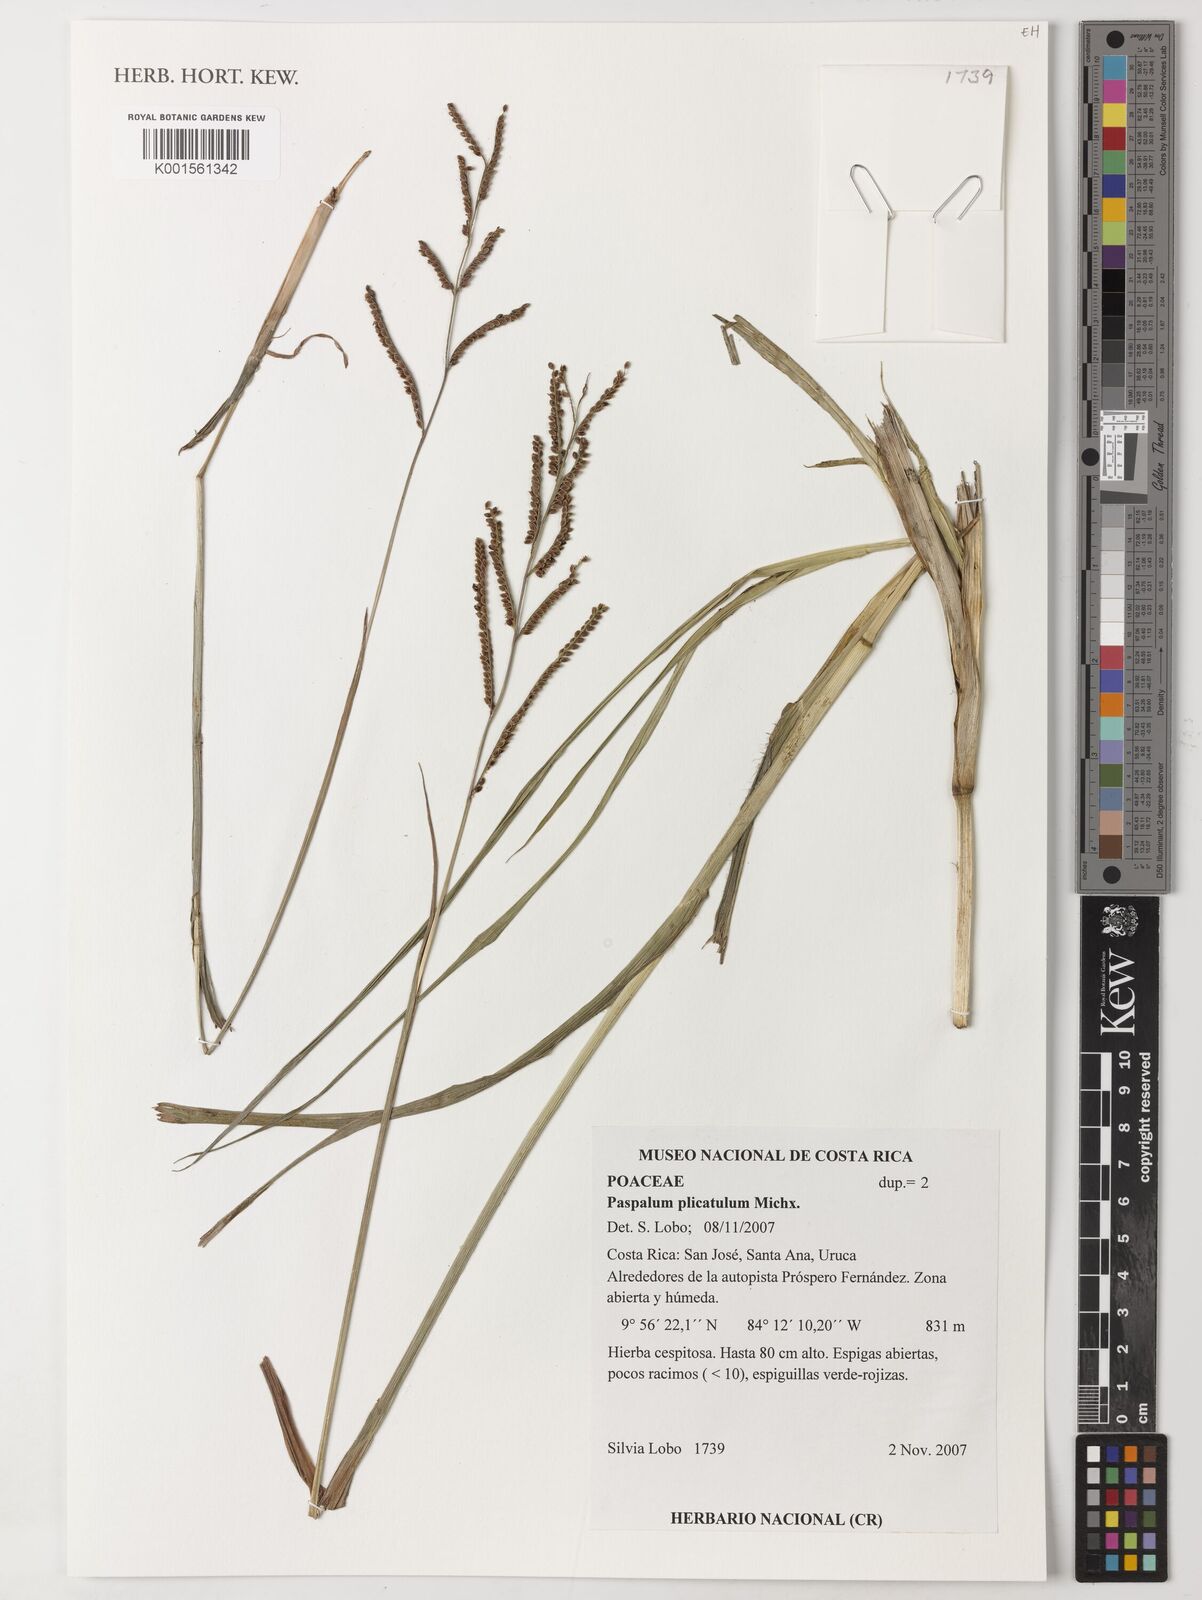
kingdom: Plantae
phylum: Tracheophyta
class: Liliopsida
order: Poales
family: Poaceae
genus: Paspalum
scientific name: Paspalum plicatulum
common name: Top paspalum
